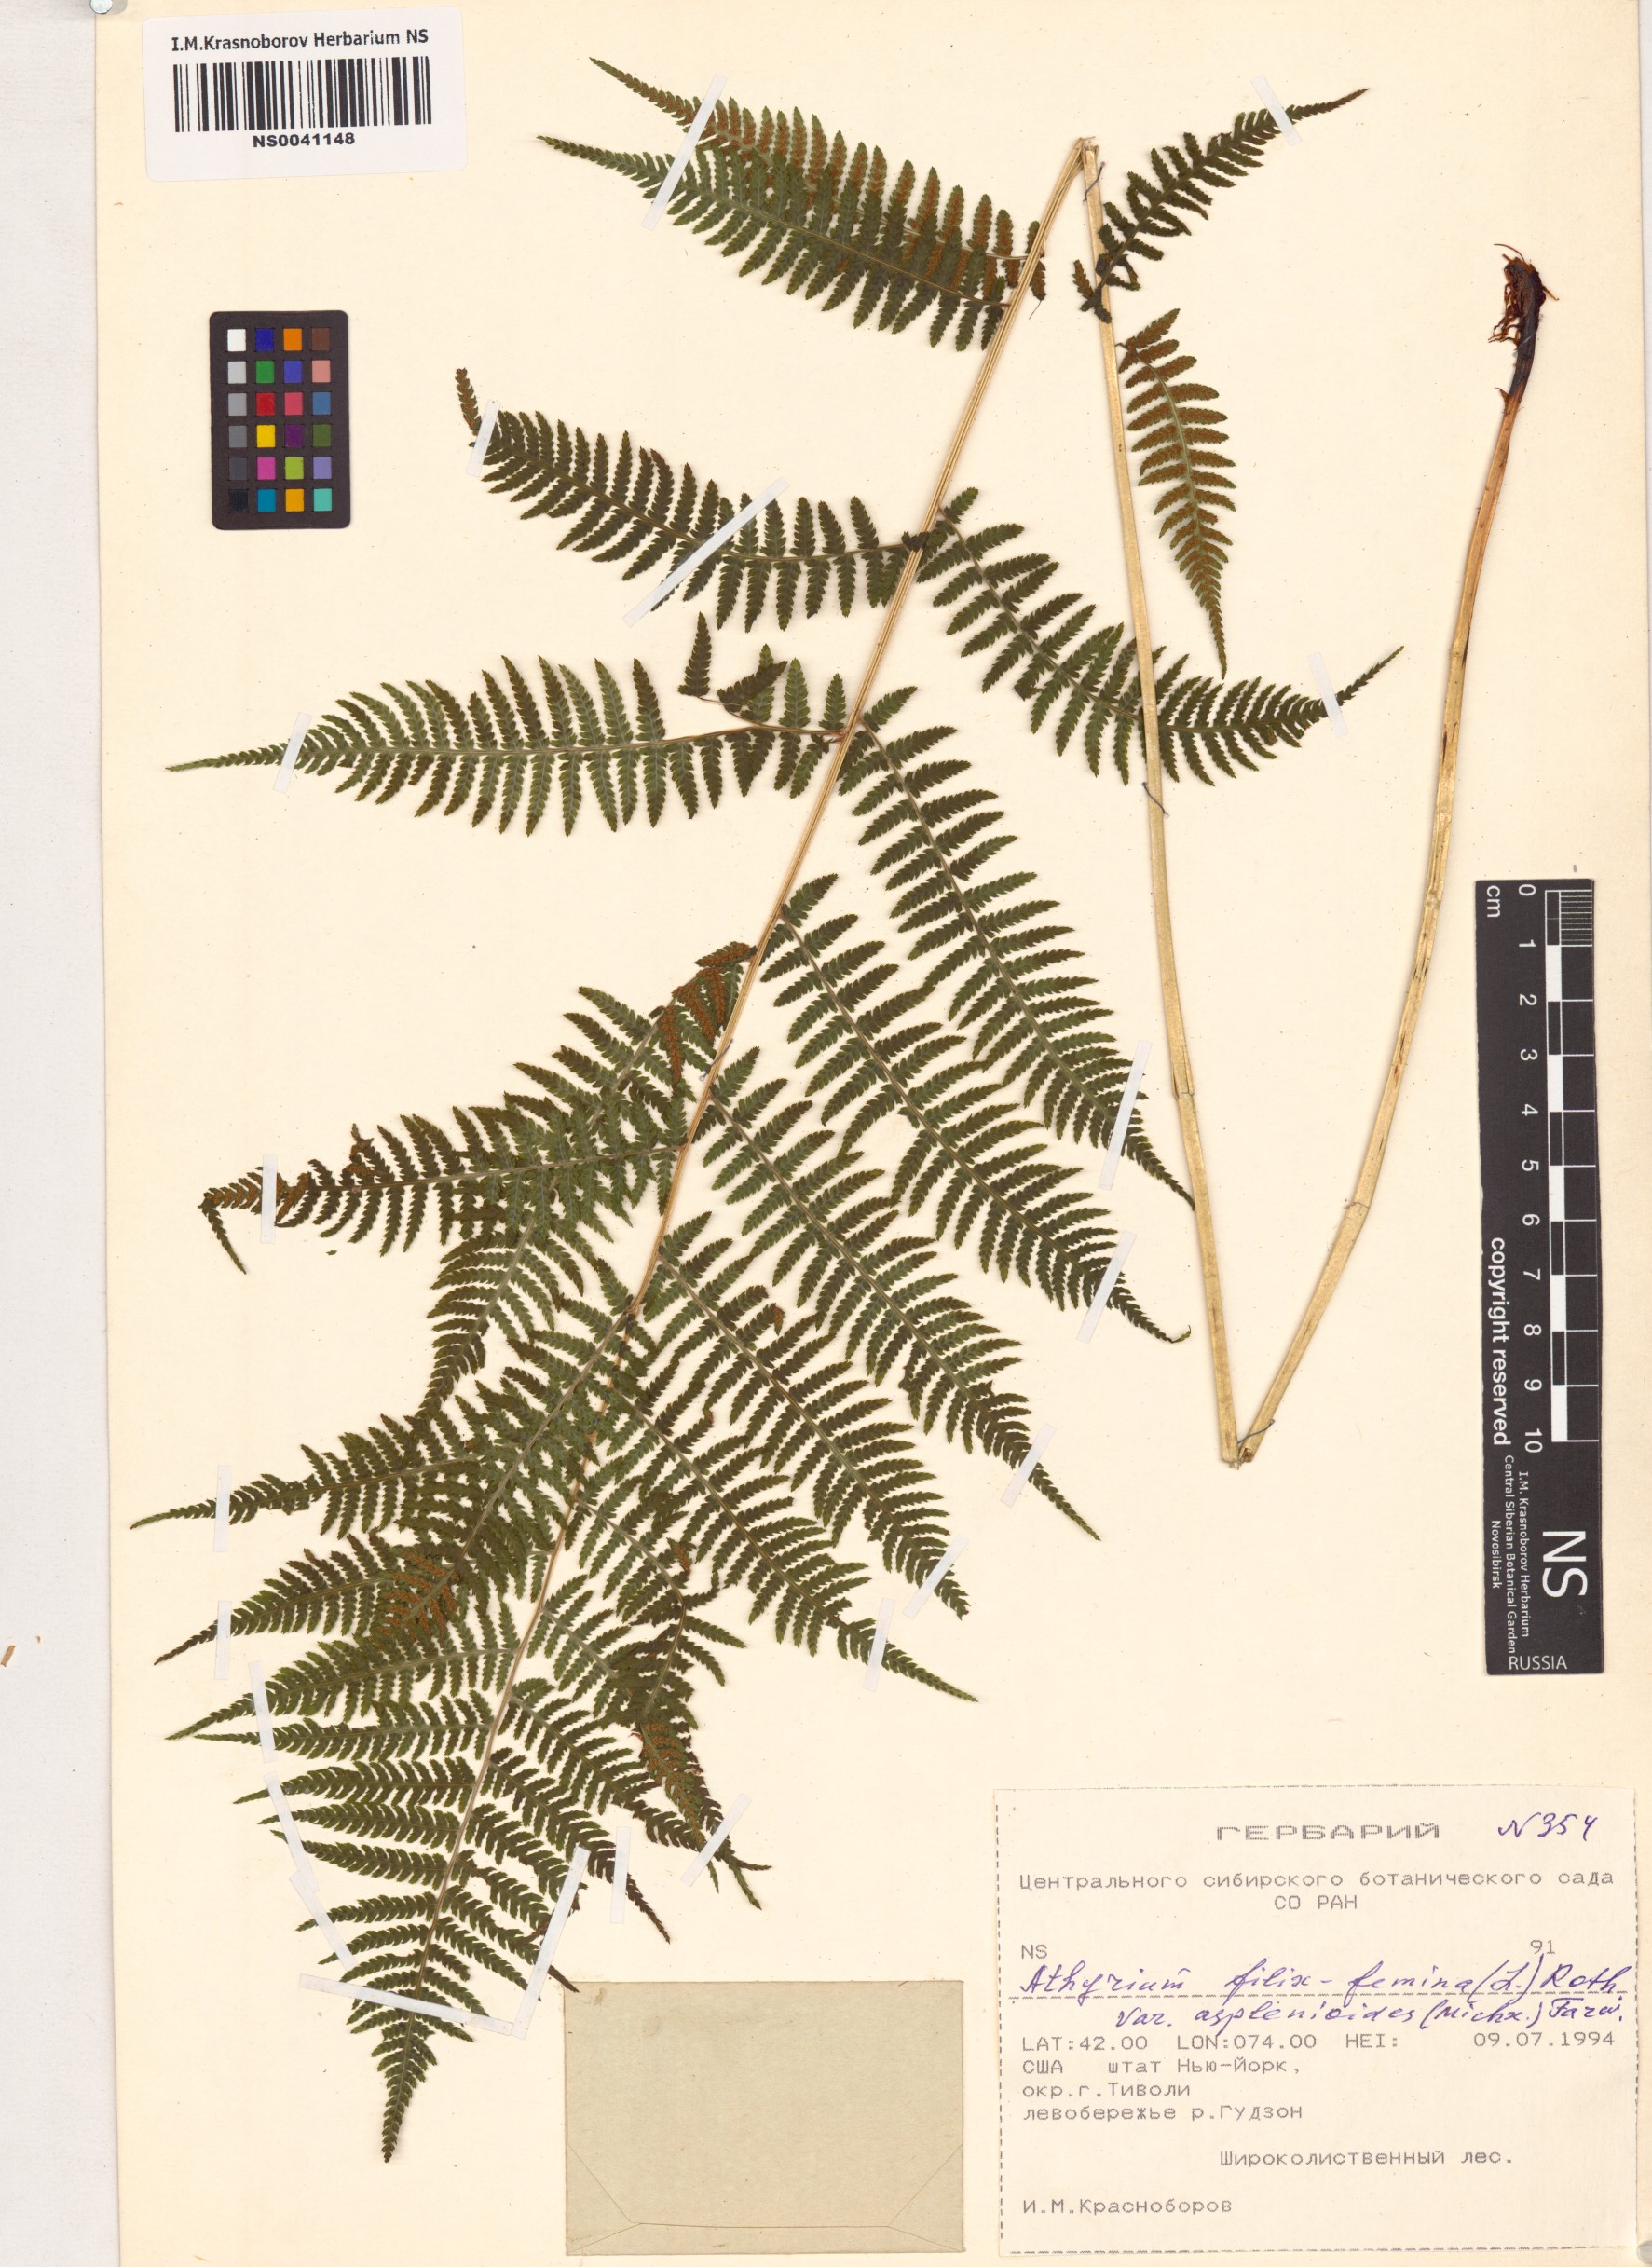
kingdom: Plantae
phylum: Tracheophyta
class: Polypodiopsida
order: Polypodiales
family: Athyriaceae
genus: Athyrium
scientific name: Athyrium asplenioides
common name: Southern lady fern
